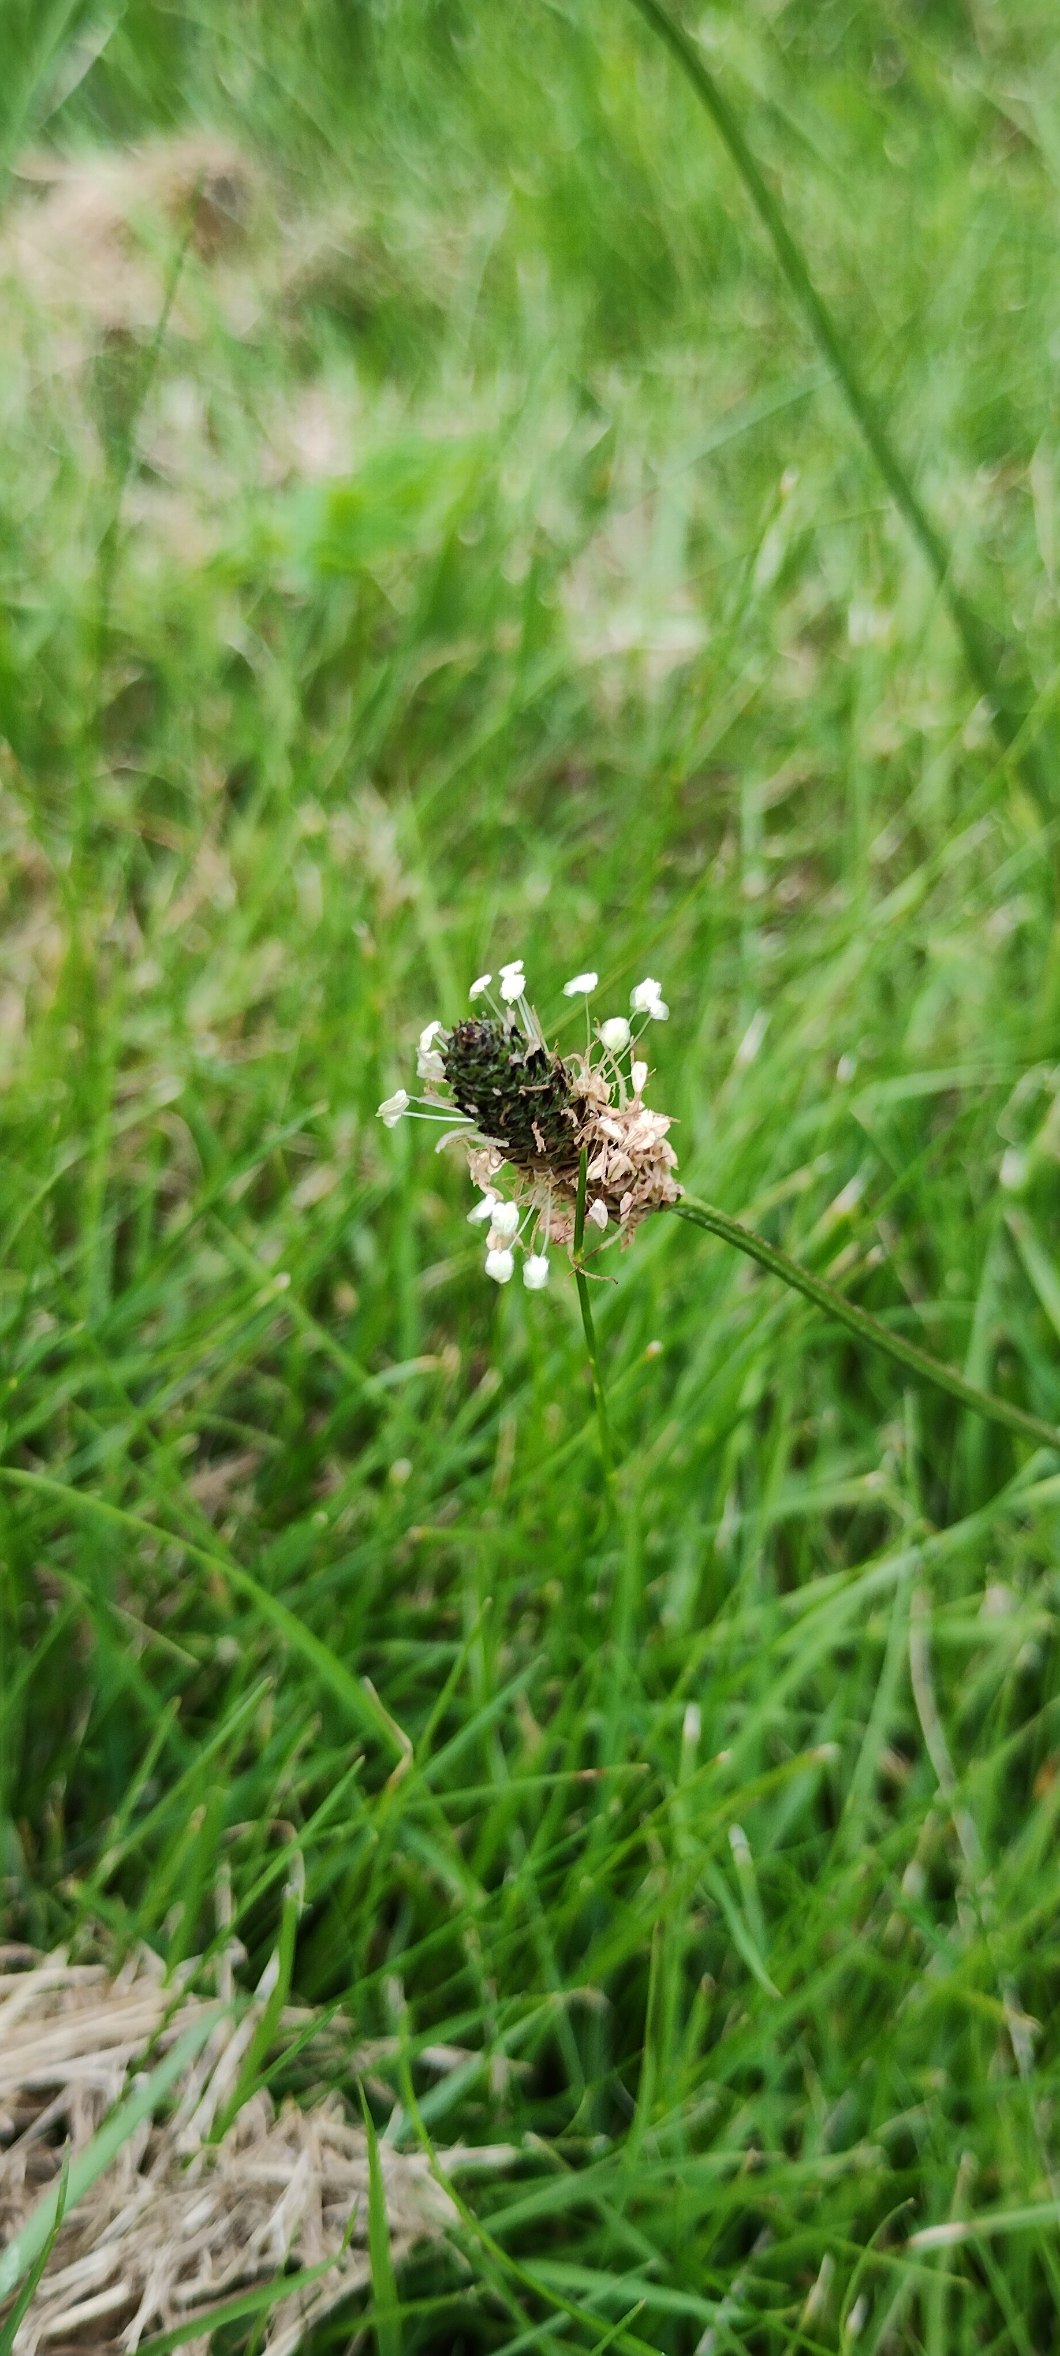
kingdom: Plantae
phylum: Tracheophyta
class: Magnoliopsida
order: Lamiales
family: Plantaginaceae
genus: Plantago
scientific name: Plantago lanceolata
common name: Lancet-vejbred
